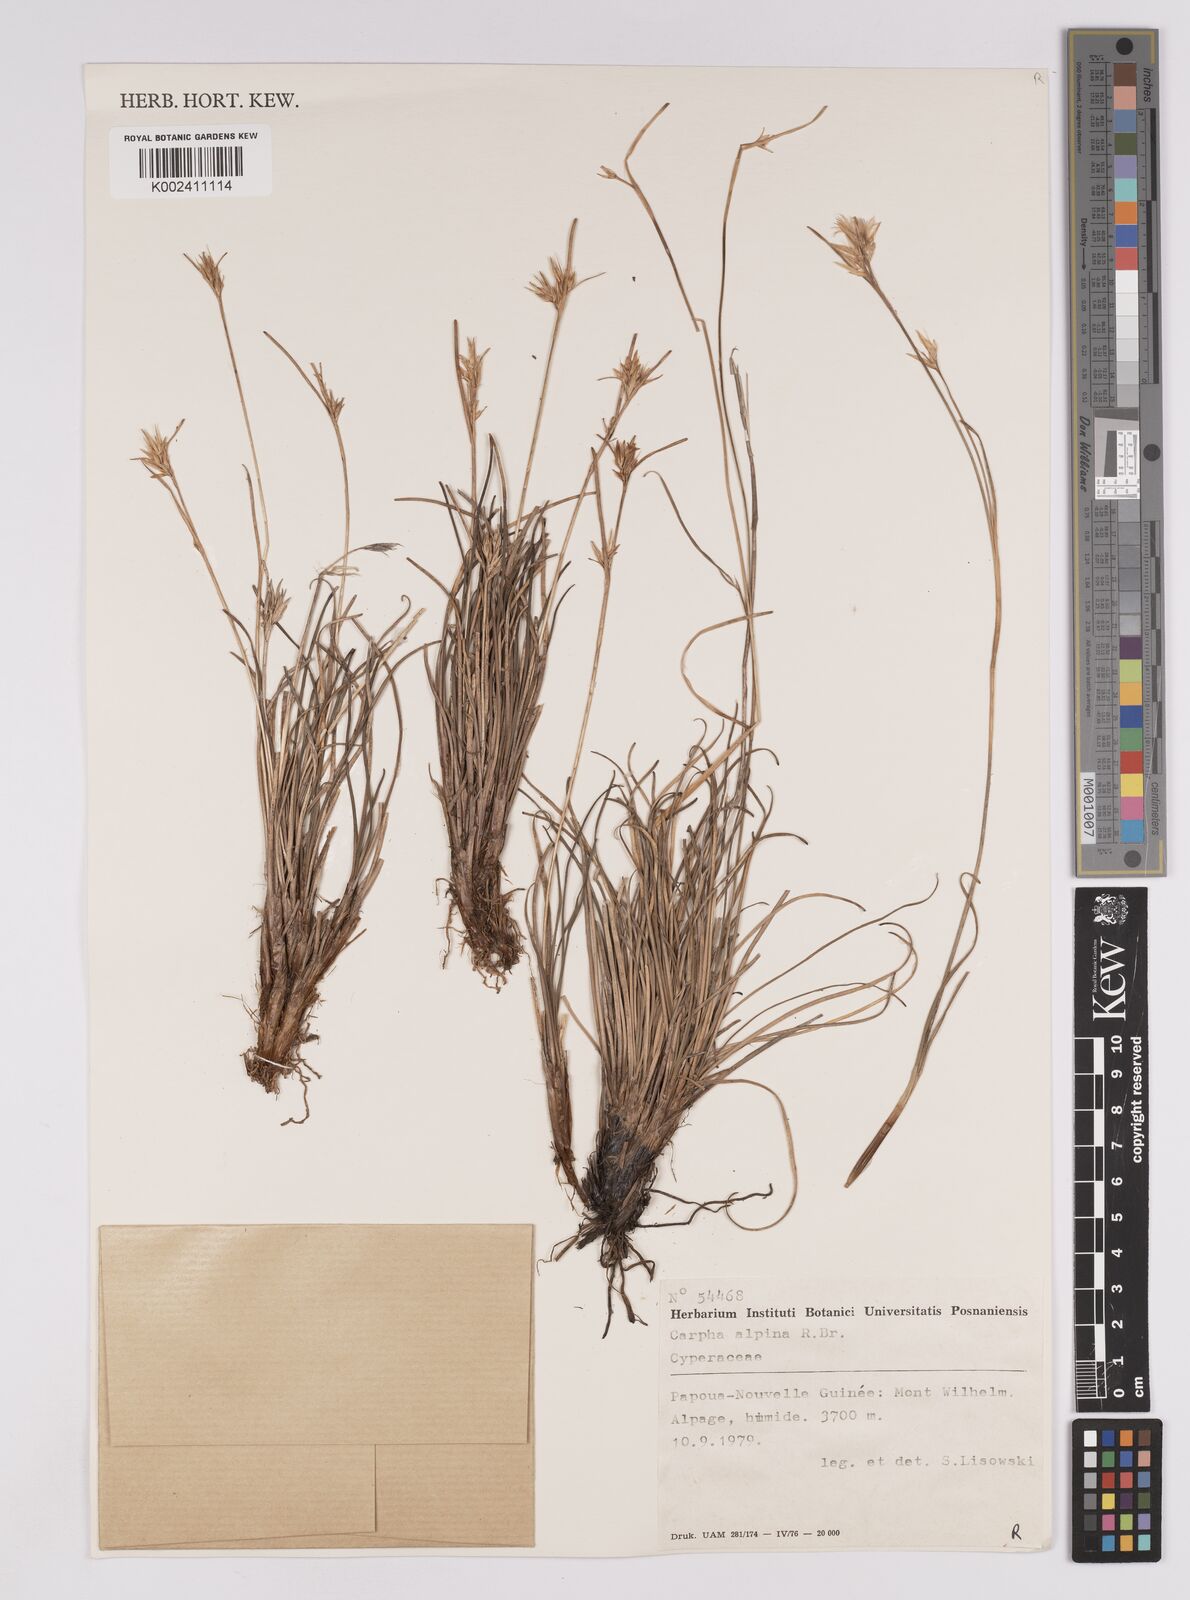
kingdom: Plantae
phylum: Tracheophyta
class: Liliopsida
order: Poales
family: Cyperaceae
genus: Carpha
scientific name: Carpha alpina
